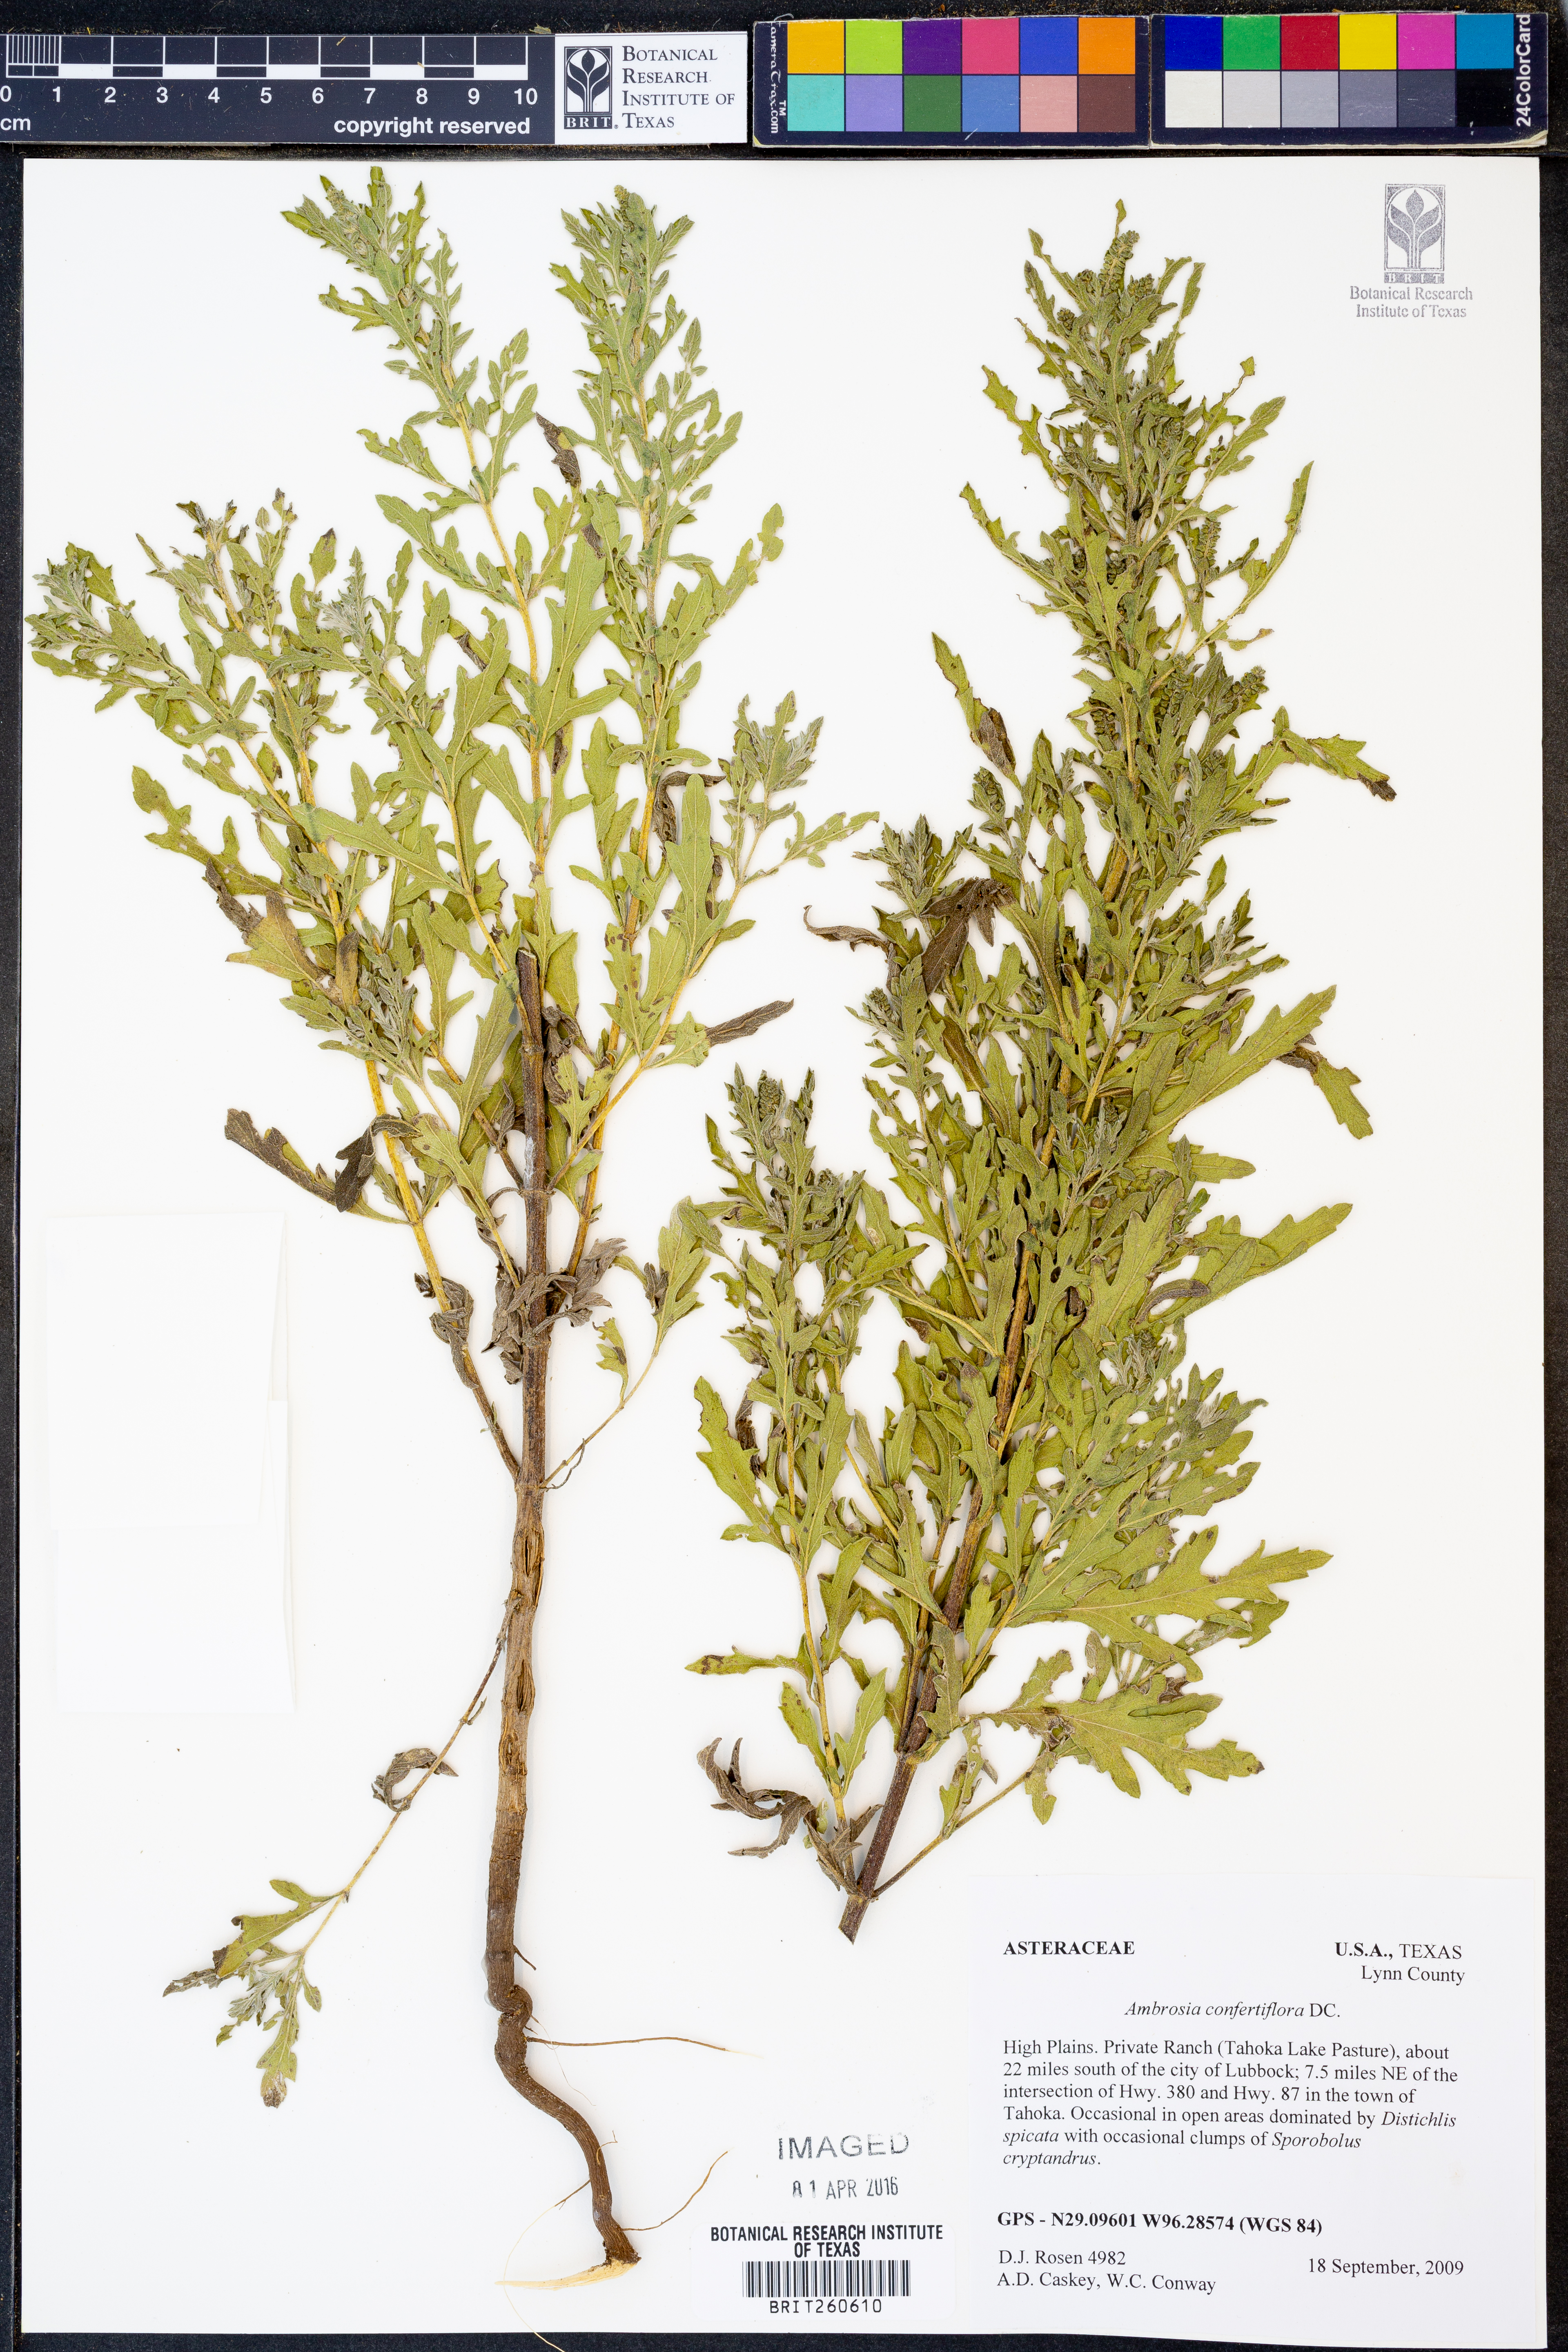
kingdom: Plantae
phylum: Tracheophyta
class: Magnoliopsida
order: Asterales
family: Asteraceae
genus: Ambrosia
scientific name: Ambrosia confertiflora
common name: Bur ragweed
